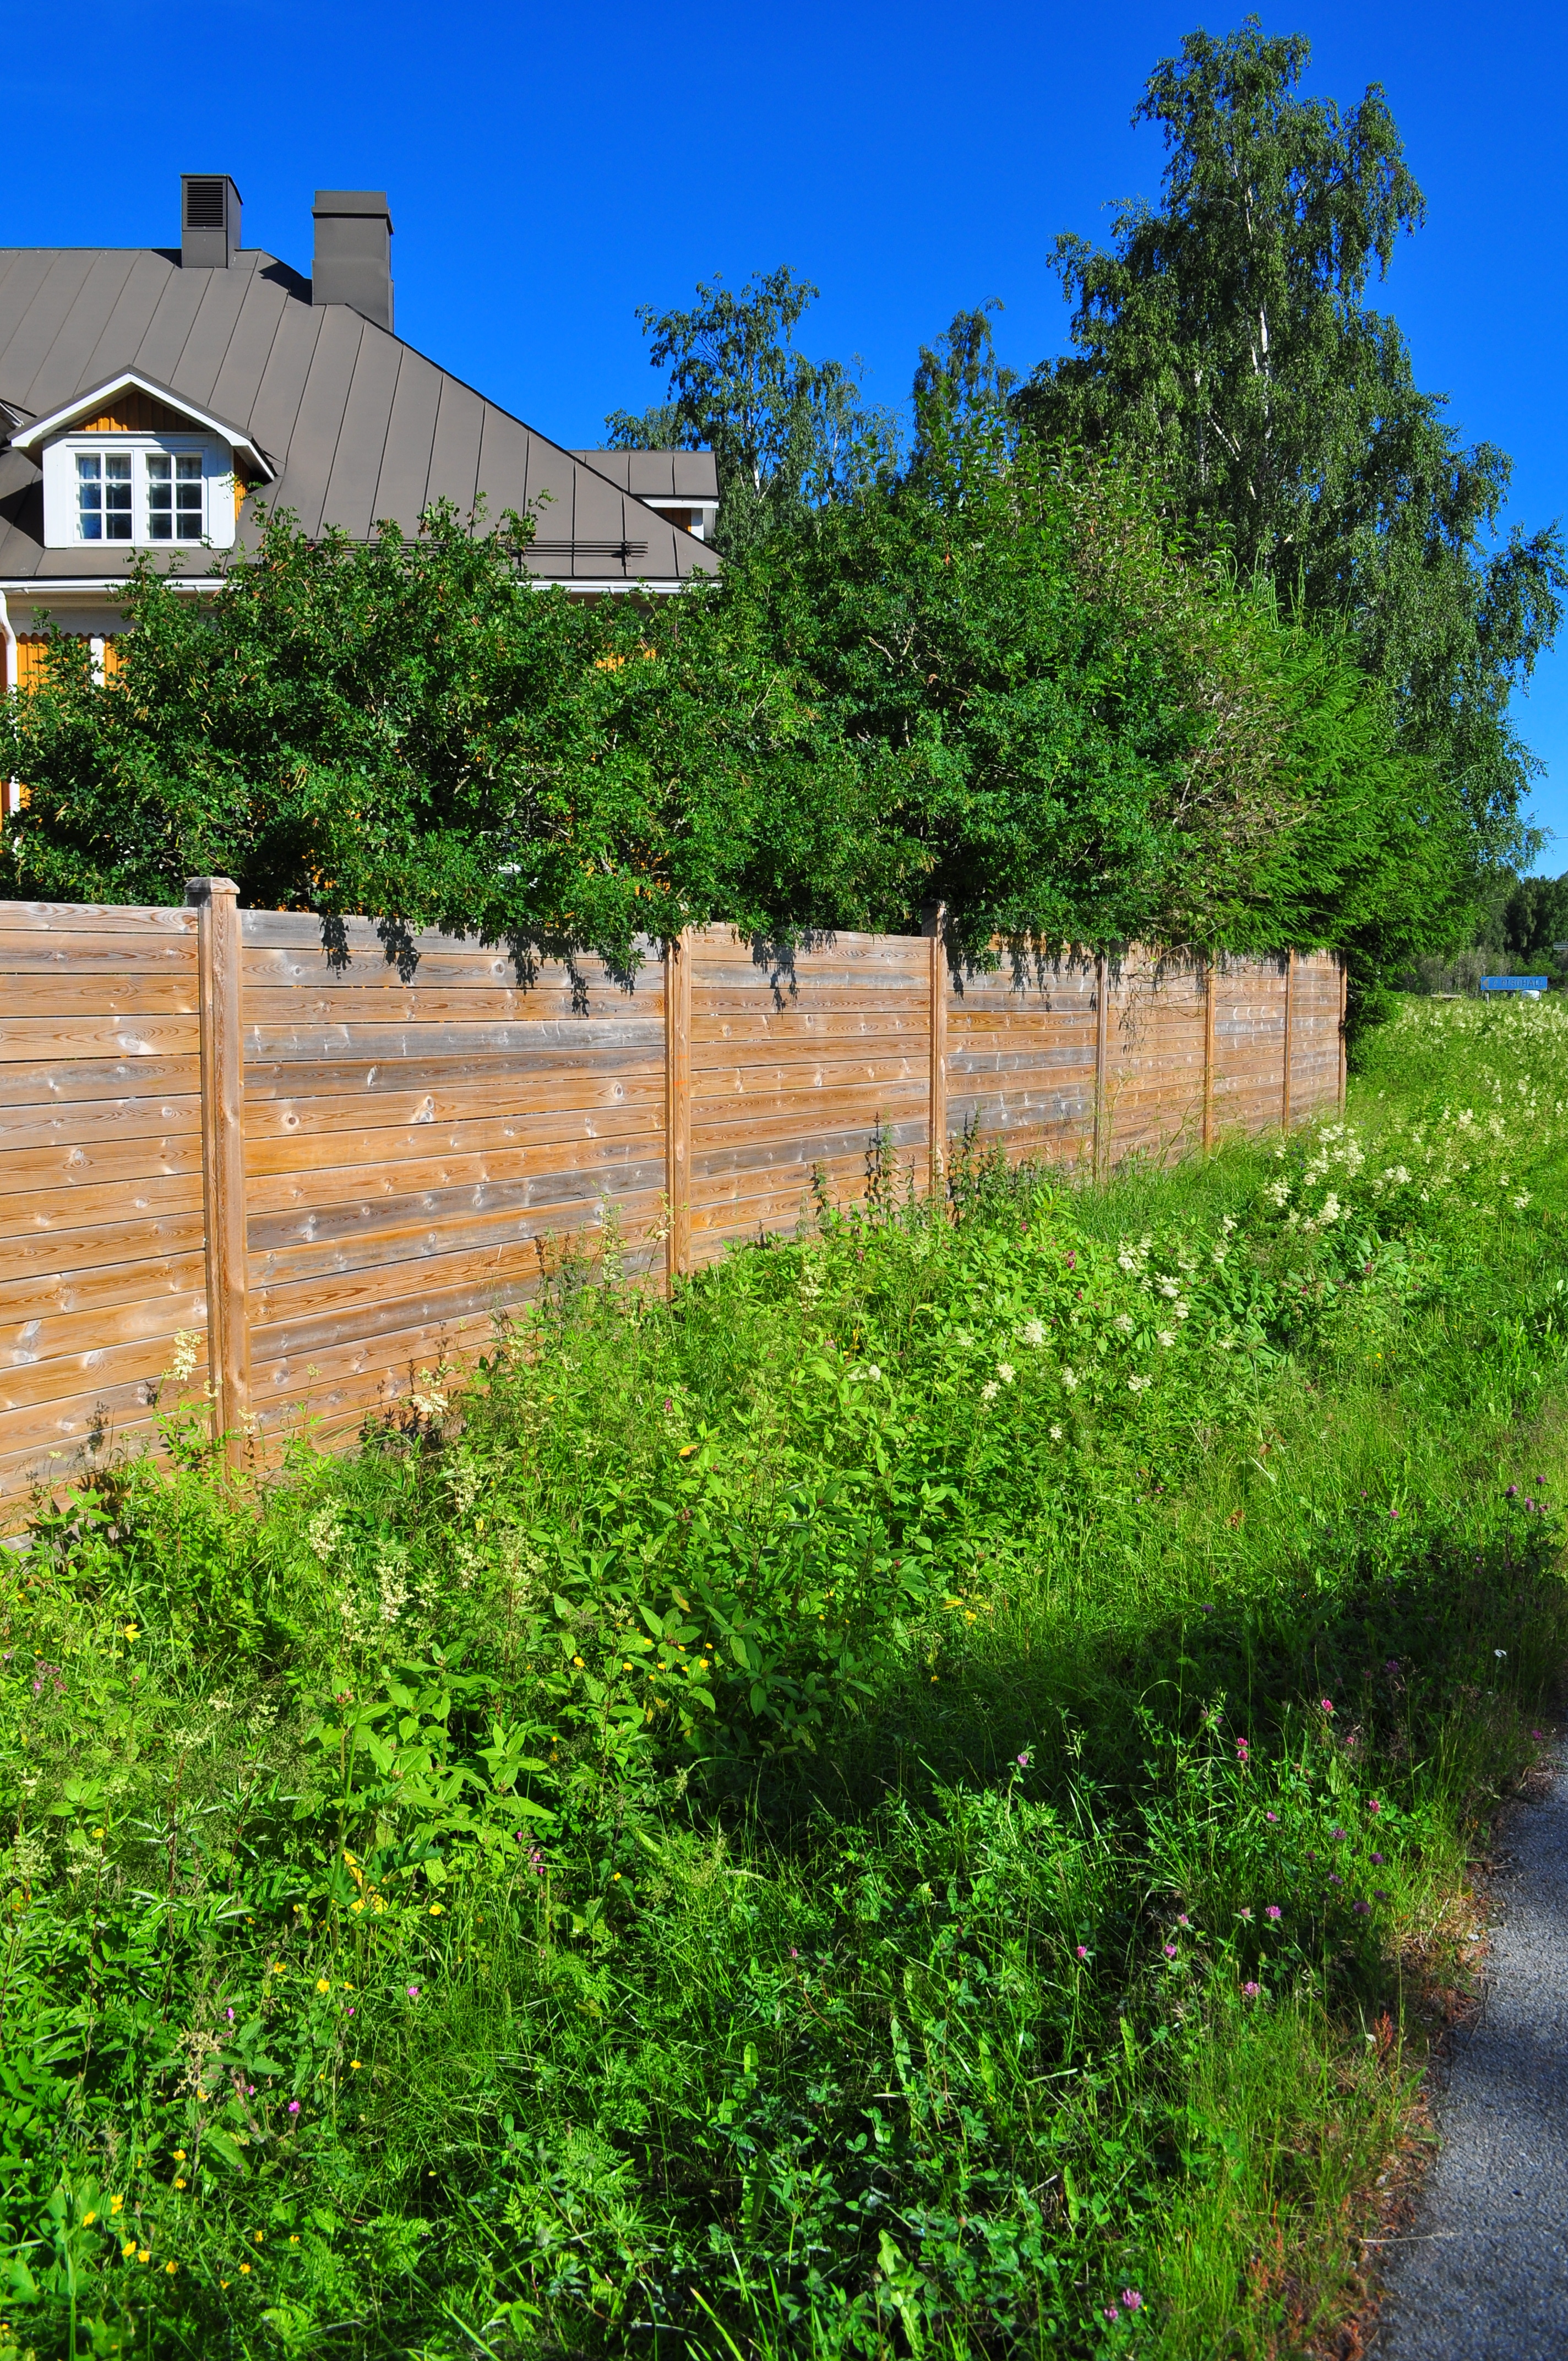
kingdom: Plantae
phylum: Tracheophyta
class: Magnoliopsida
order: Ericales
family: Balsaminaceae
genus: Impatiens
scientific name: Impatiens glandulifera
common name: Himalayan balsam
